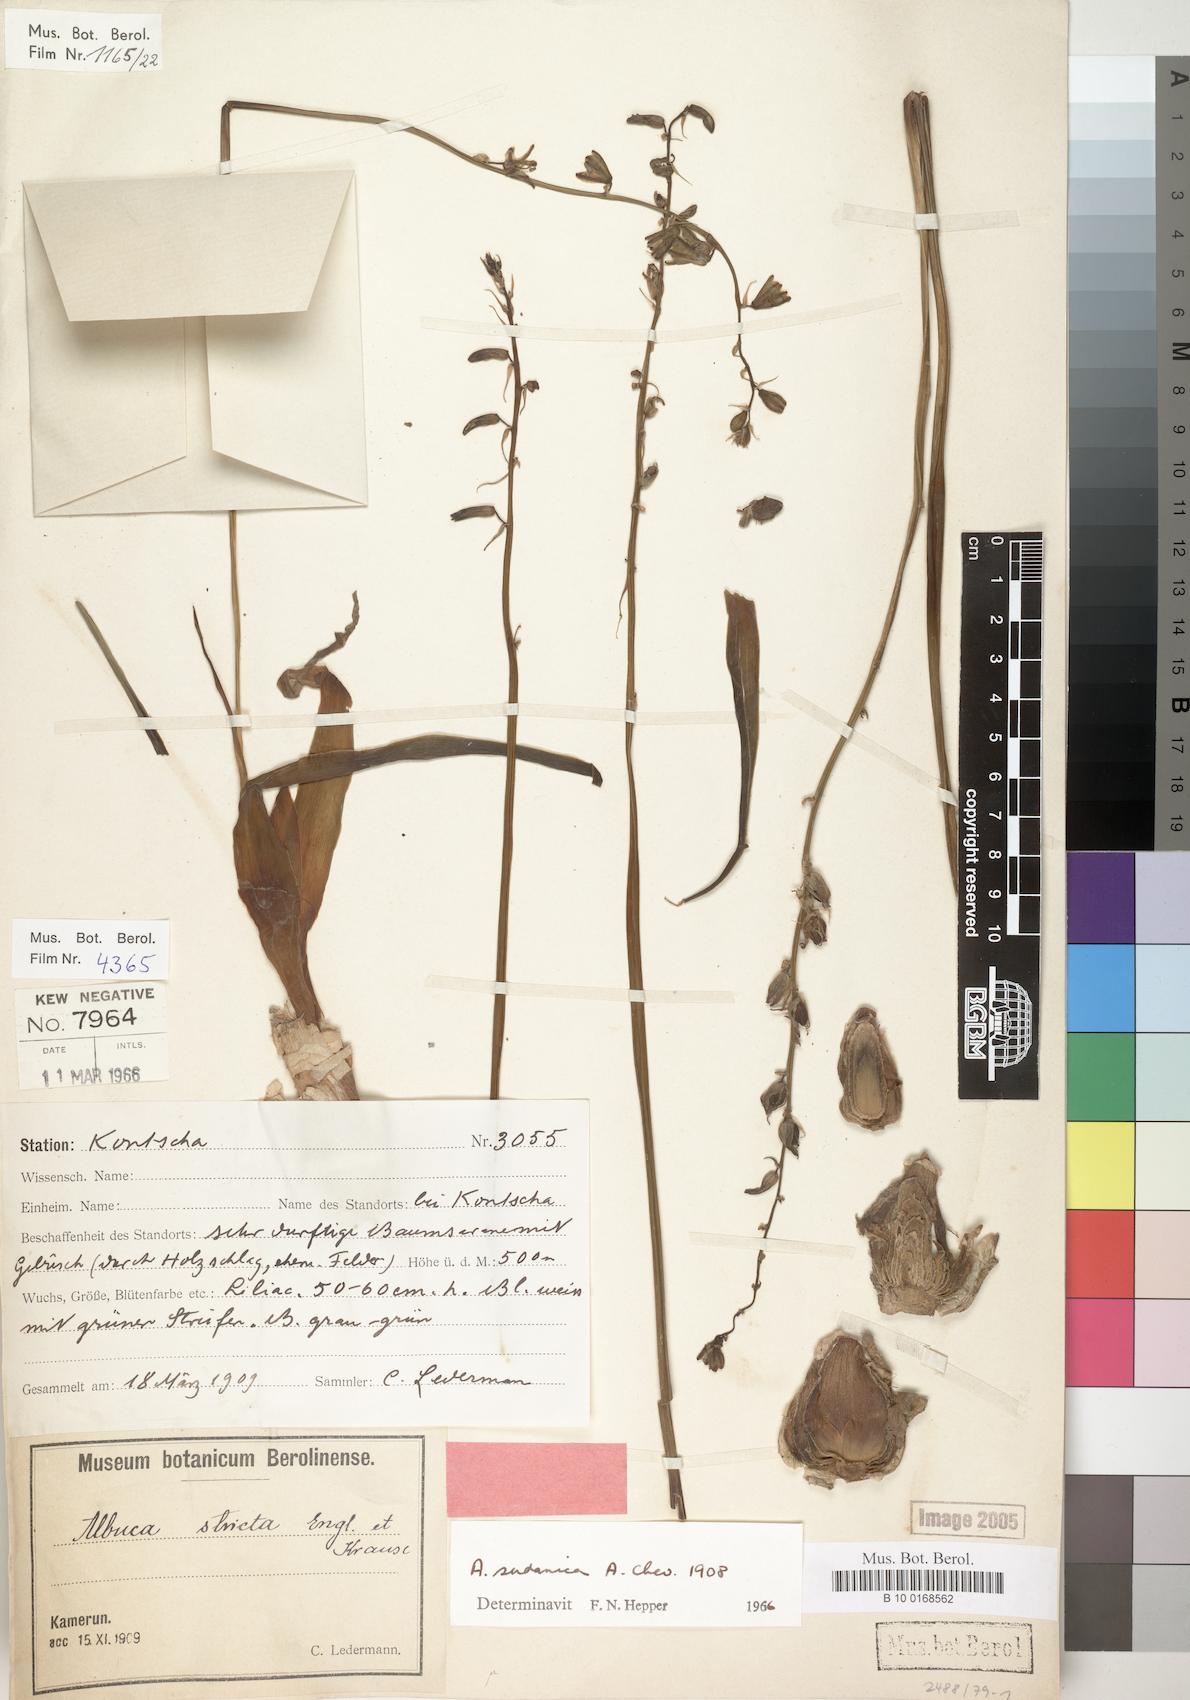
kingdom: Plantae
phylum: Tracheophyta
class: Liliopsida
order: Asparagales
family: Asparagaceae
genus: Albuca
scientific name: Albuca sudanica
